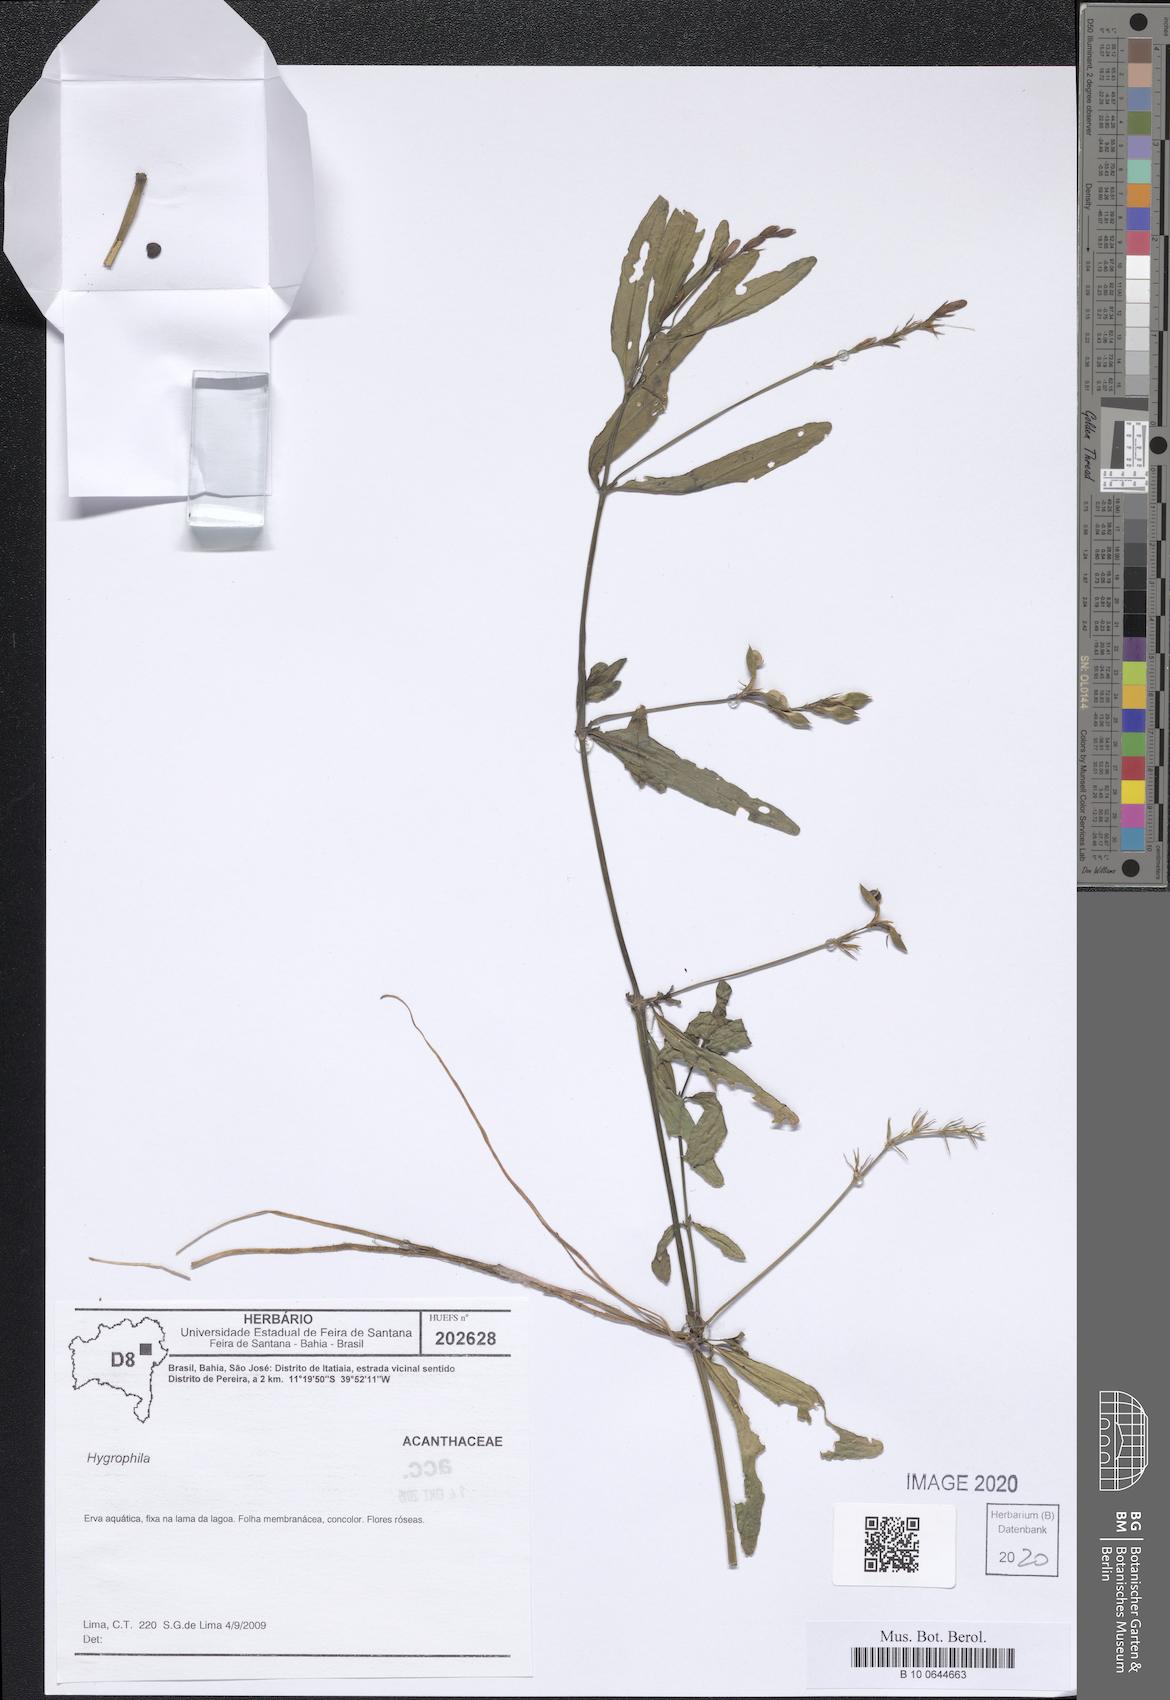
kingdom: Plantae
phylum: Tracheophyta
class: Magnoliopsida
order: Lamiales
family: Acanthaceae
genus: Hygrophila
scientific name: Hygrophila
